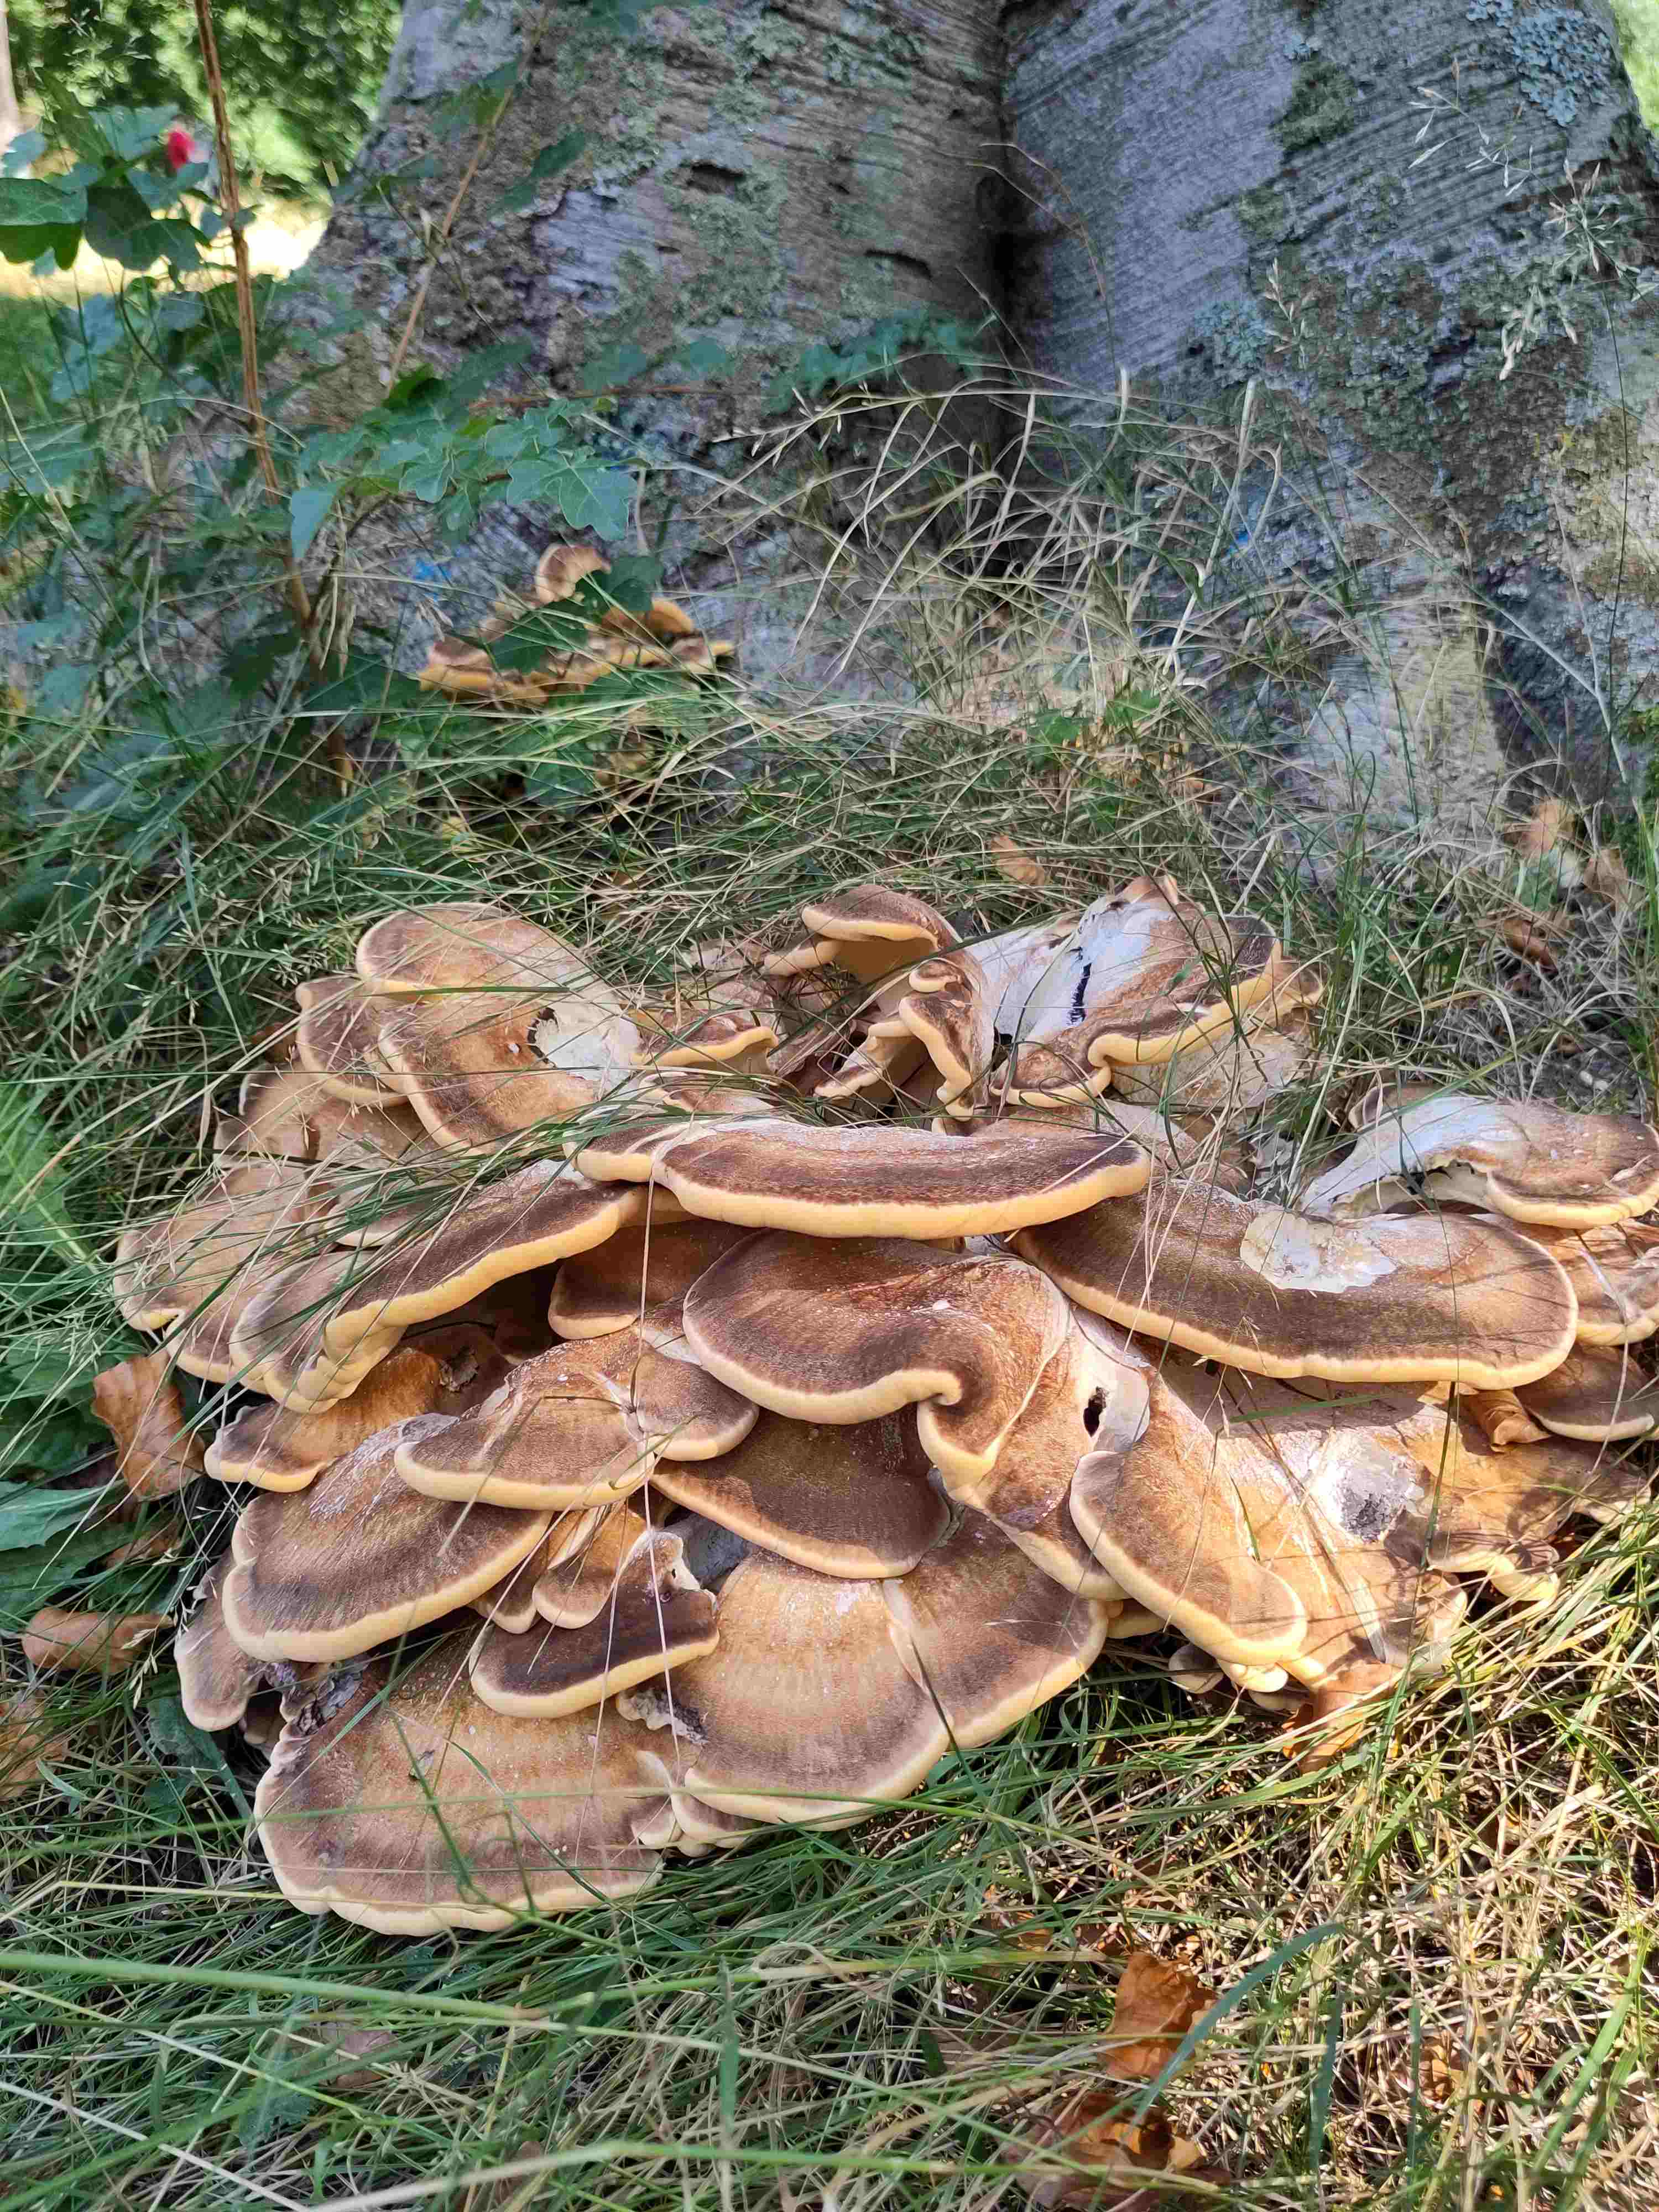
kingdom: Fungi
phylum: Basidiomycota
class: Agaricomycetes
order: Polyporales
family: Meripilaceae
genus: Meripilus
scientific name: Meripilus giganteus
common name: kæmpeporesvamp
